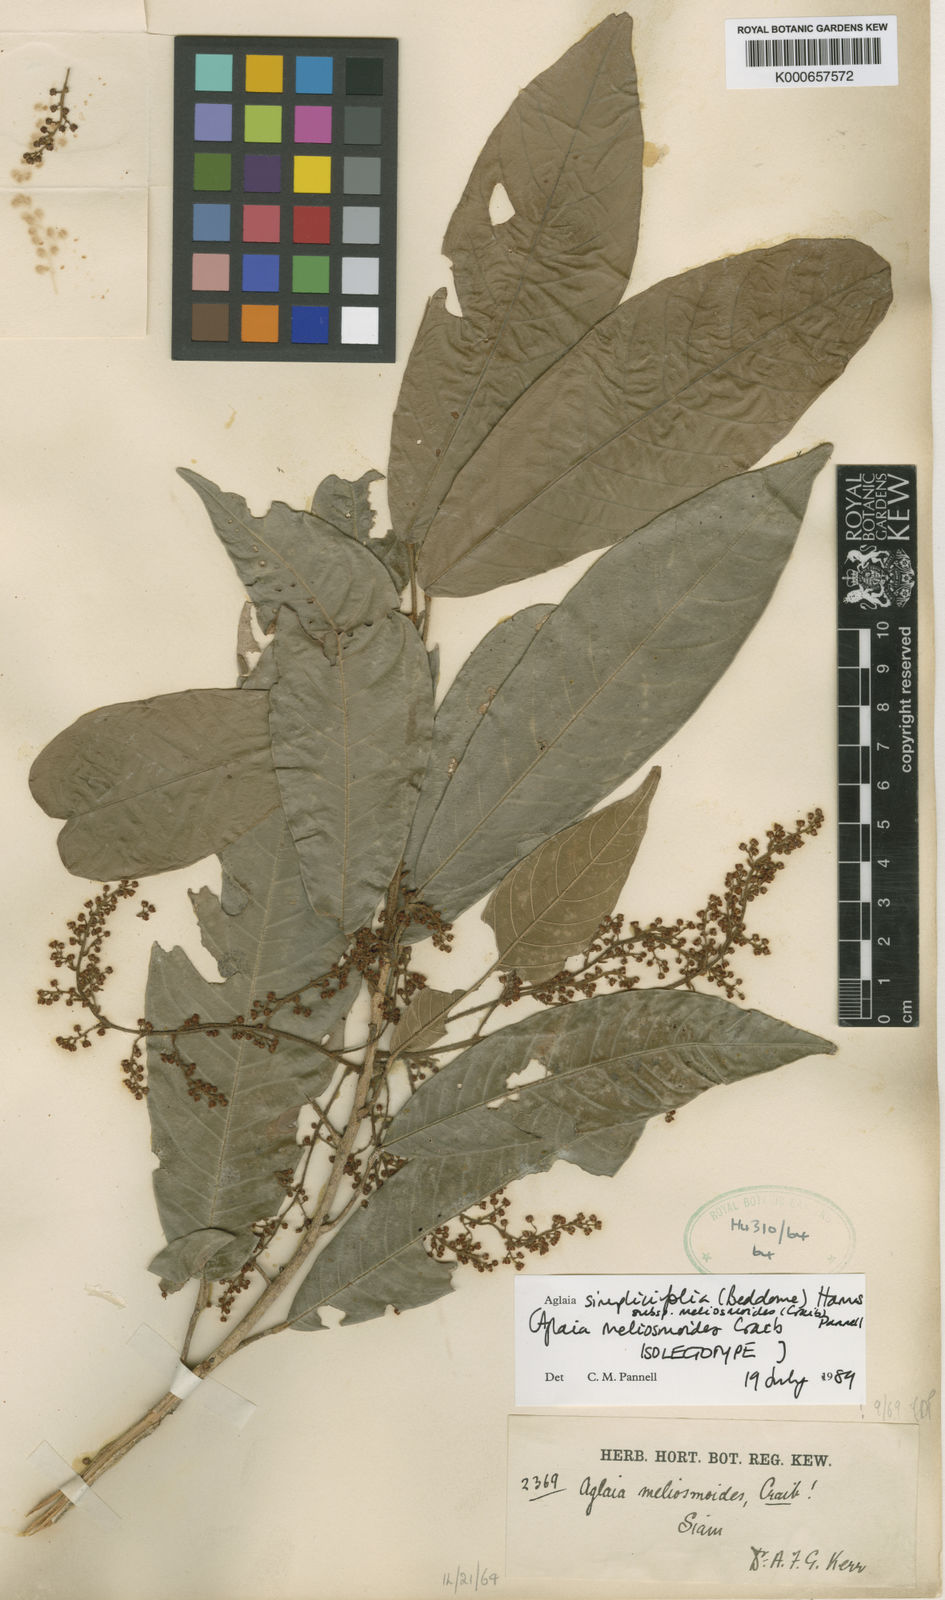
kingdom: Plantae
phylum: Tracheophyta
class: Magnoliopsida
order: Sapindales
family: Meliaceae
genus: Aglaia
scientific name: Aglaia simplicifolia
